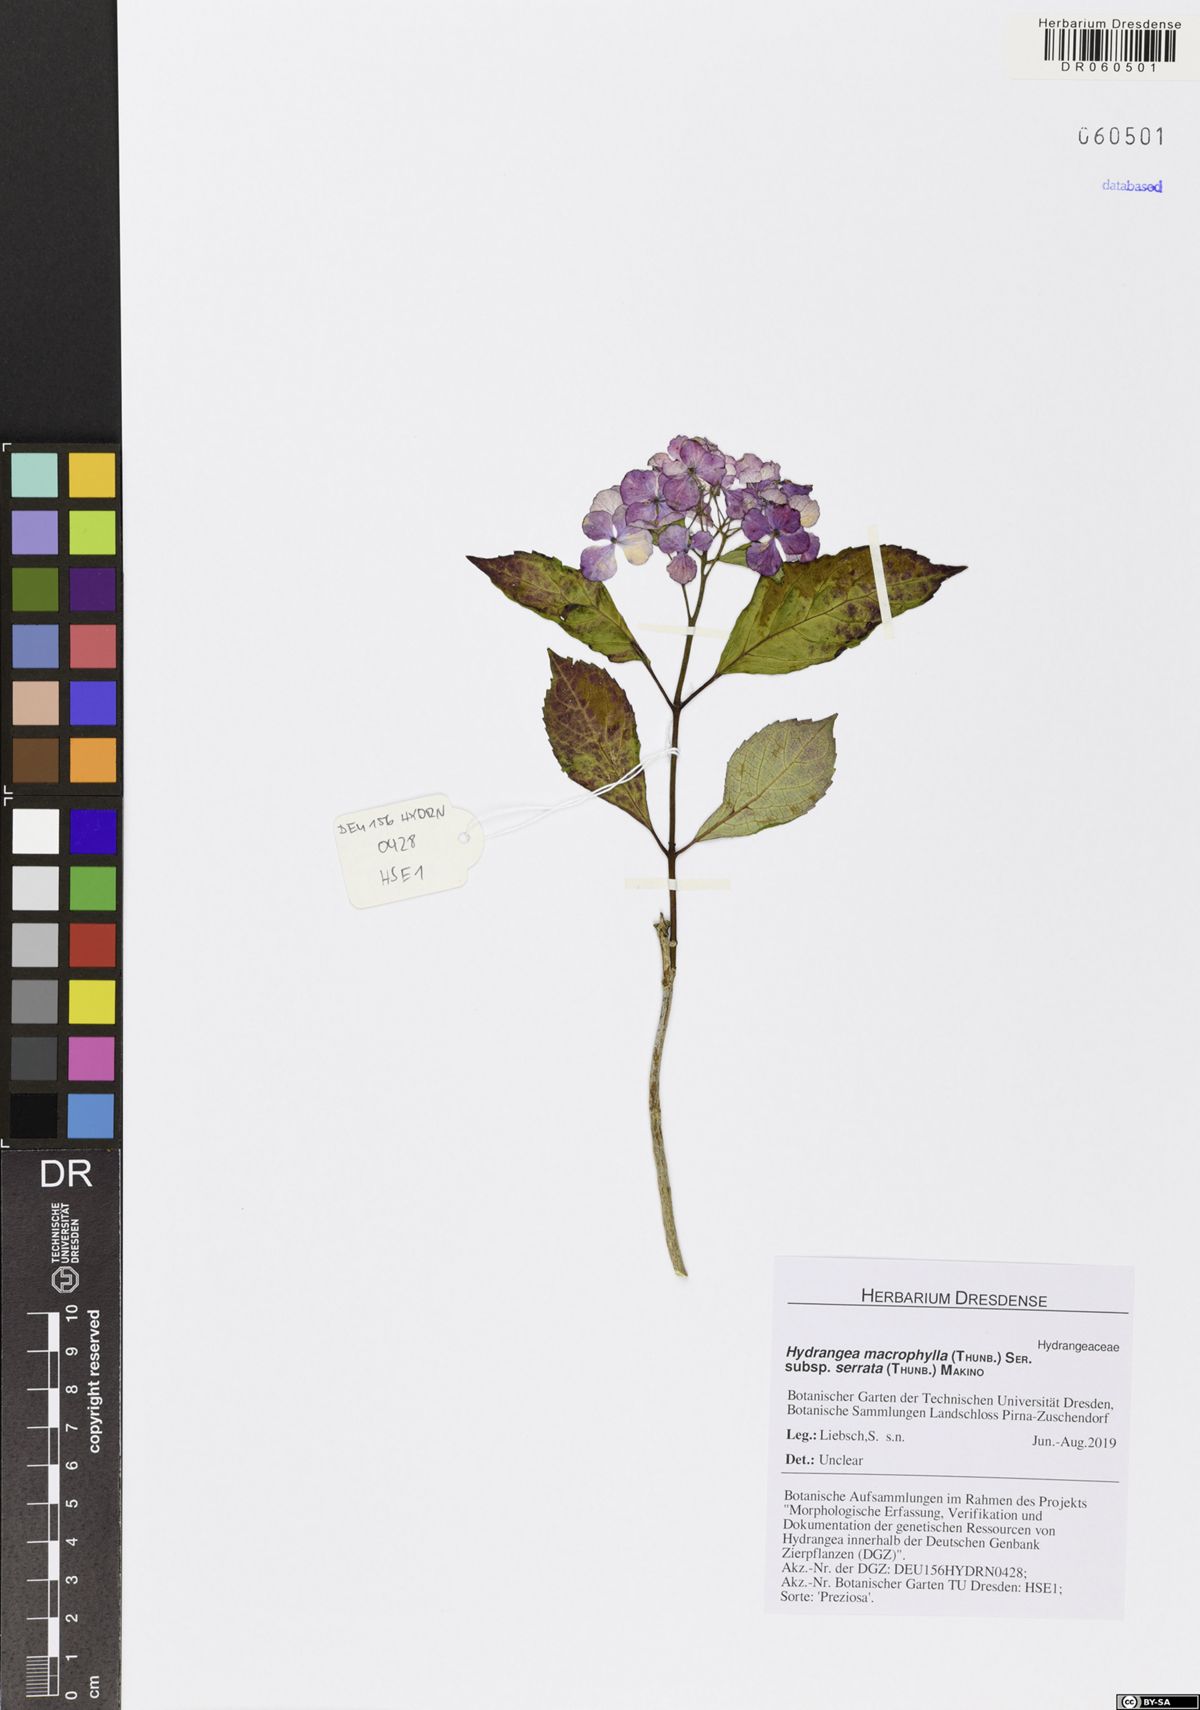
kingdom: Plantae
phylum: Tracheophyta
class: Magnoliopsida
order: Cornales
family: Hydrangeaceae
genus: Hydrangea
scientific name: Hydrangea serrata
